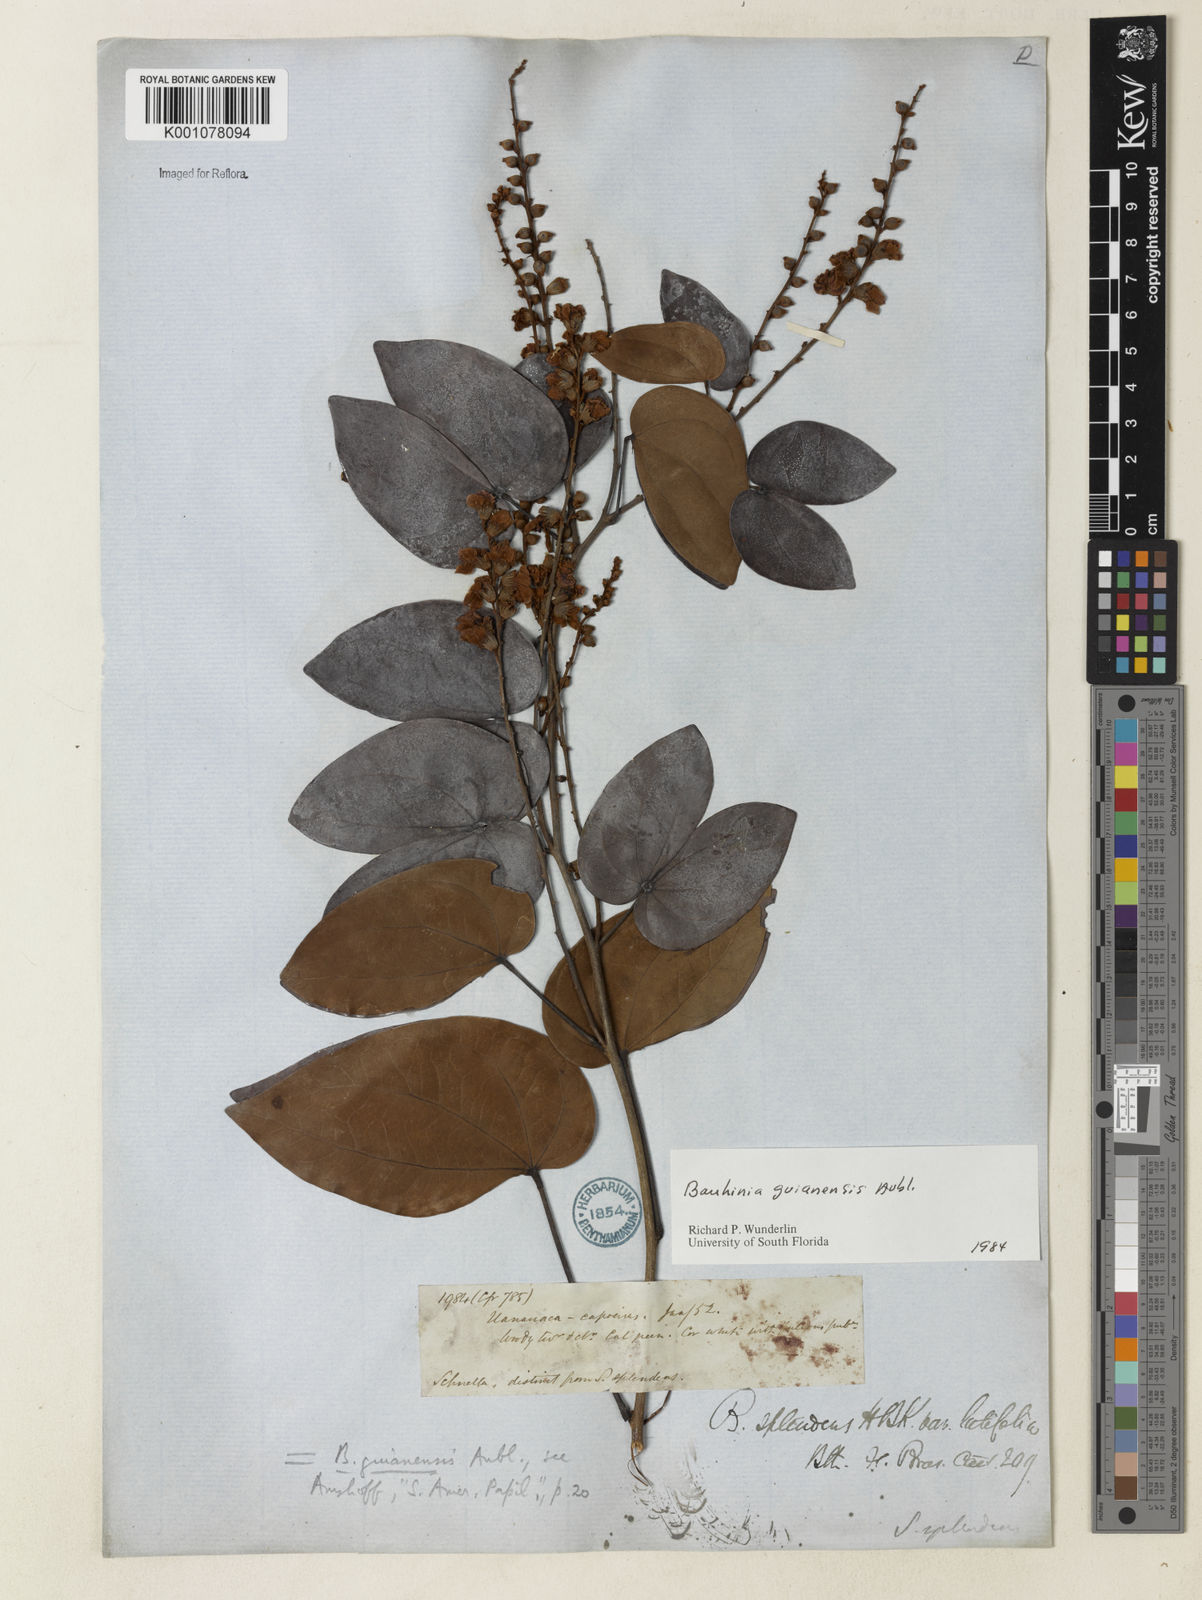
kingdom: Plantae
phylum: Tracheophyta
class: Magnoliopsida
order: Fabales
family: Fabaceae
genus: Schnella
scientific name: Schnella guianensis
